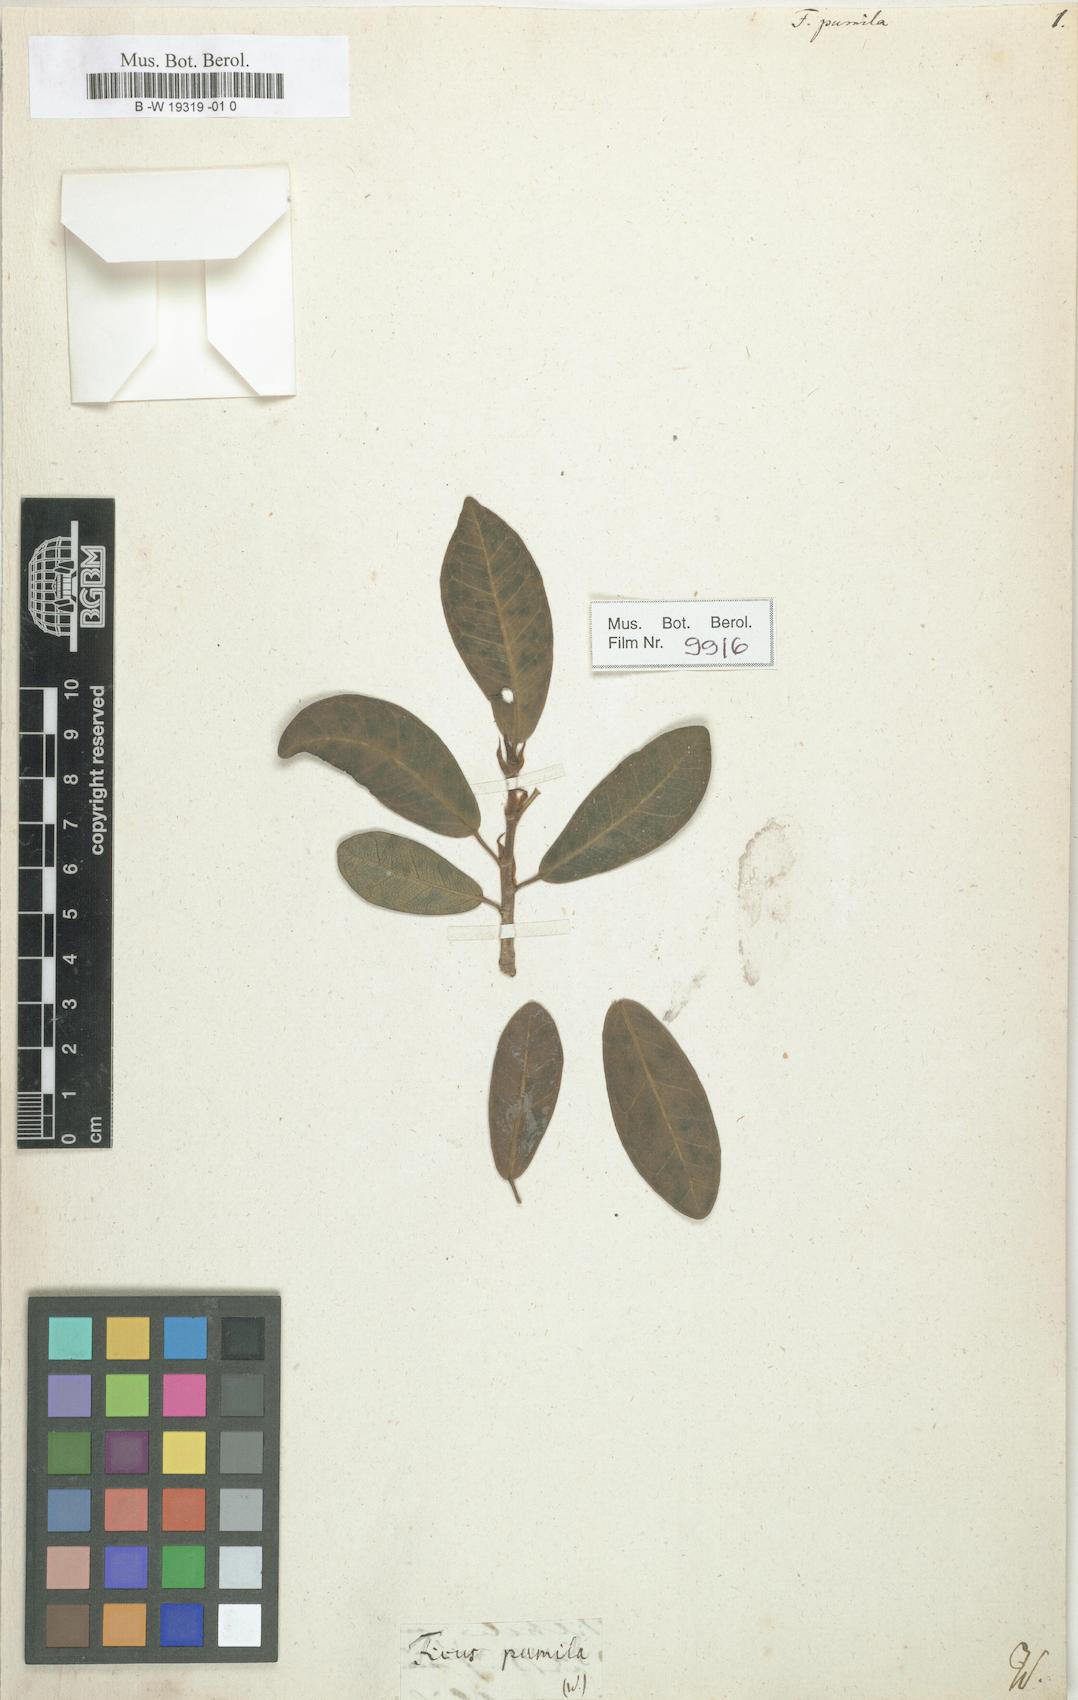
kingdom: Plantae
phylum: Tracheophyta
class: Magnoliopsida
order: Rosales
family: Moraceae
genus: Ficus
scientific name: Ficus pumila
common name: Climbingfig
